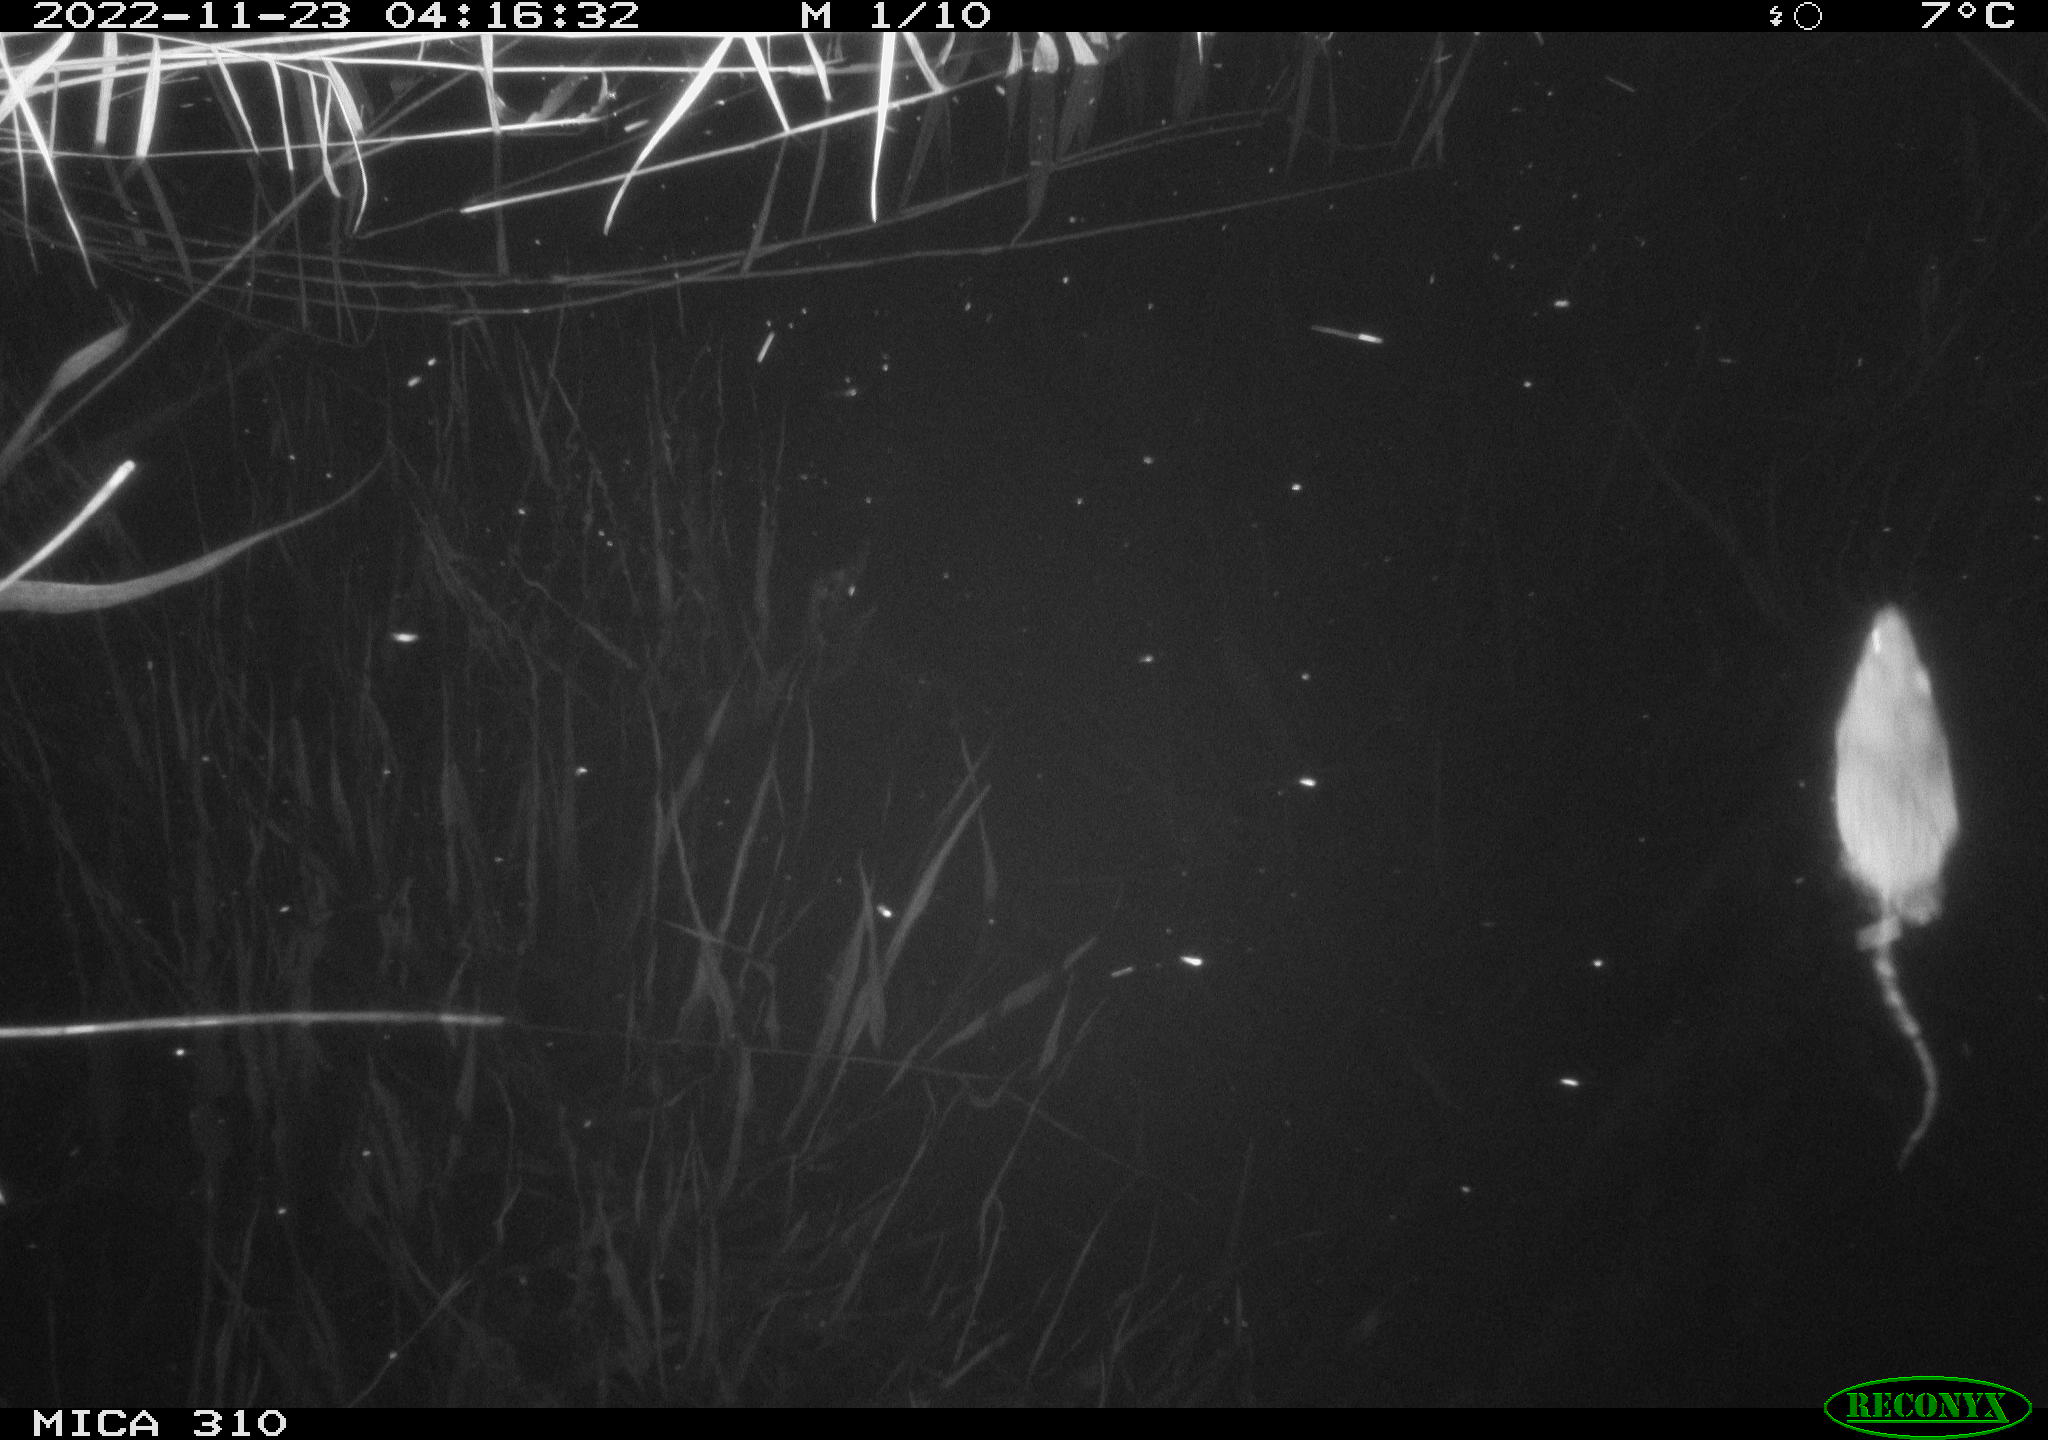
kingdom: Animalia
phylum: Chordata
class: Mammalia
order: Rodentia
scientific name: Rodentia
